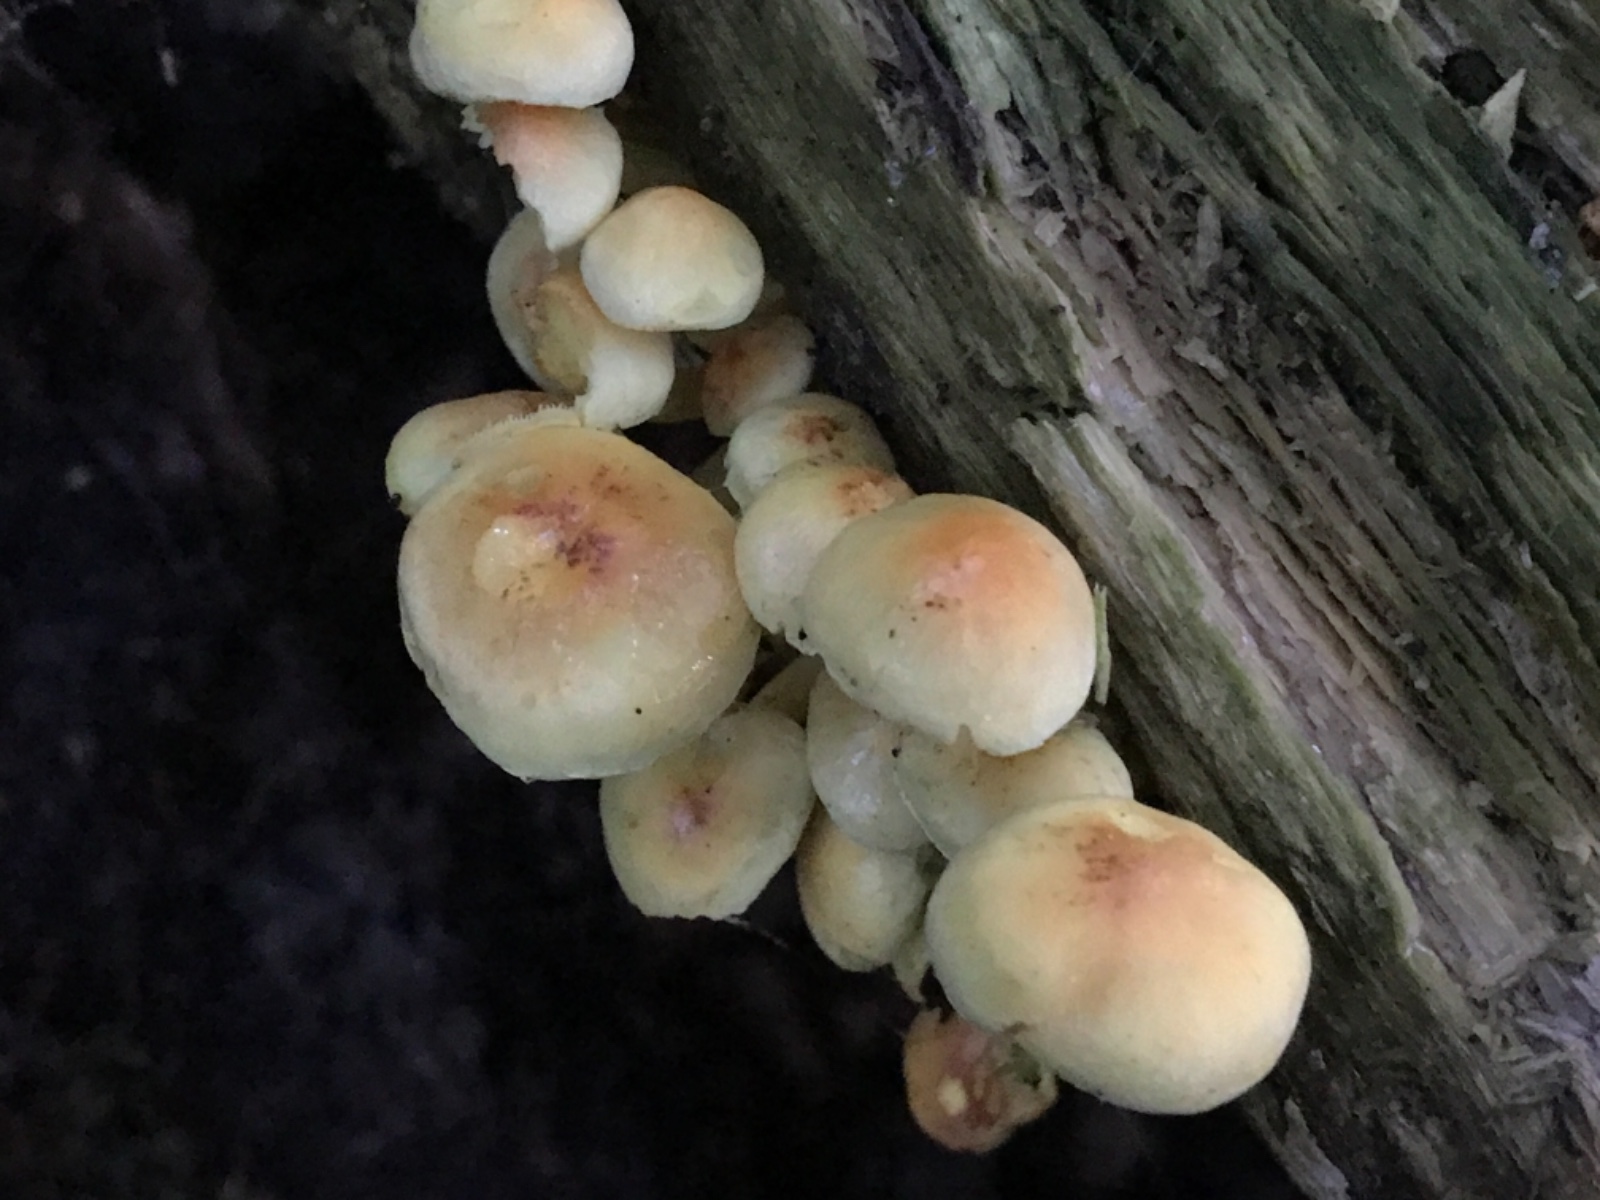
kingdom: Fungi
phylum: Basidiomycota
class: Agaricomycetes
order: Agaricales
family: Strophariaceae
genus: Hypholoma
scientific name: Hypholoma fasciculare
